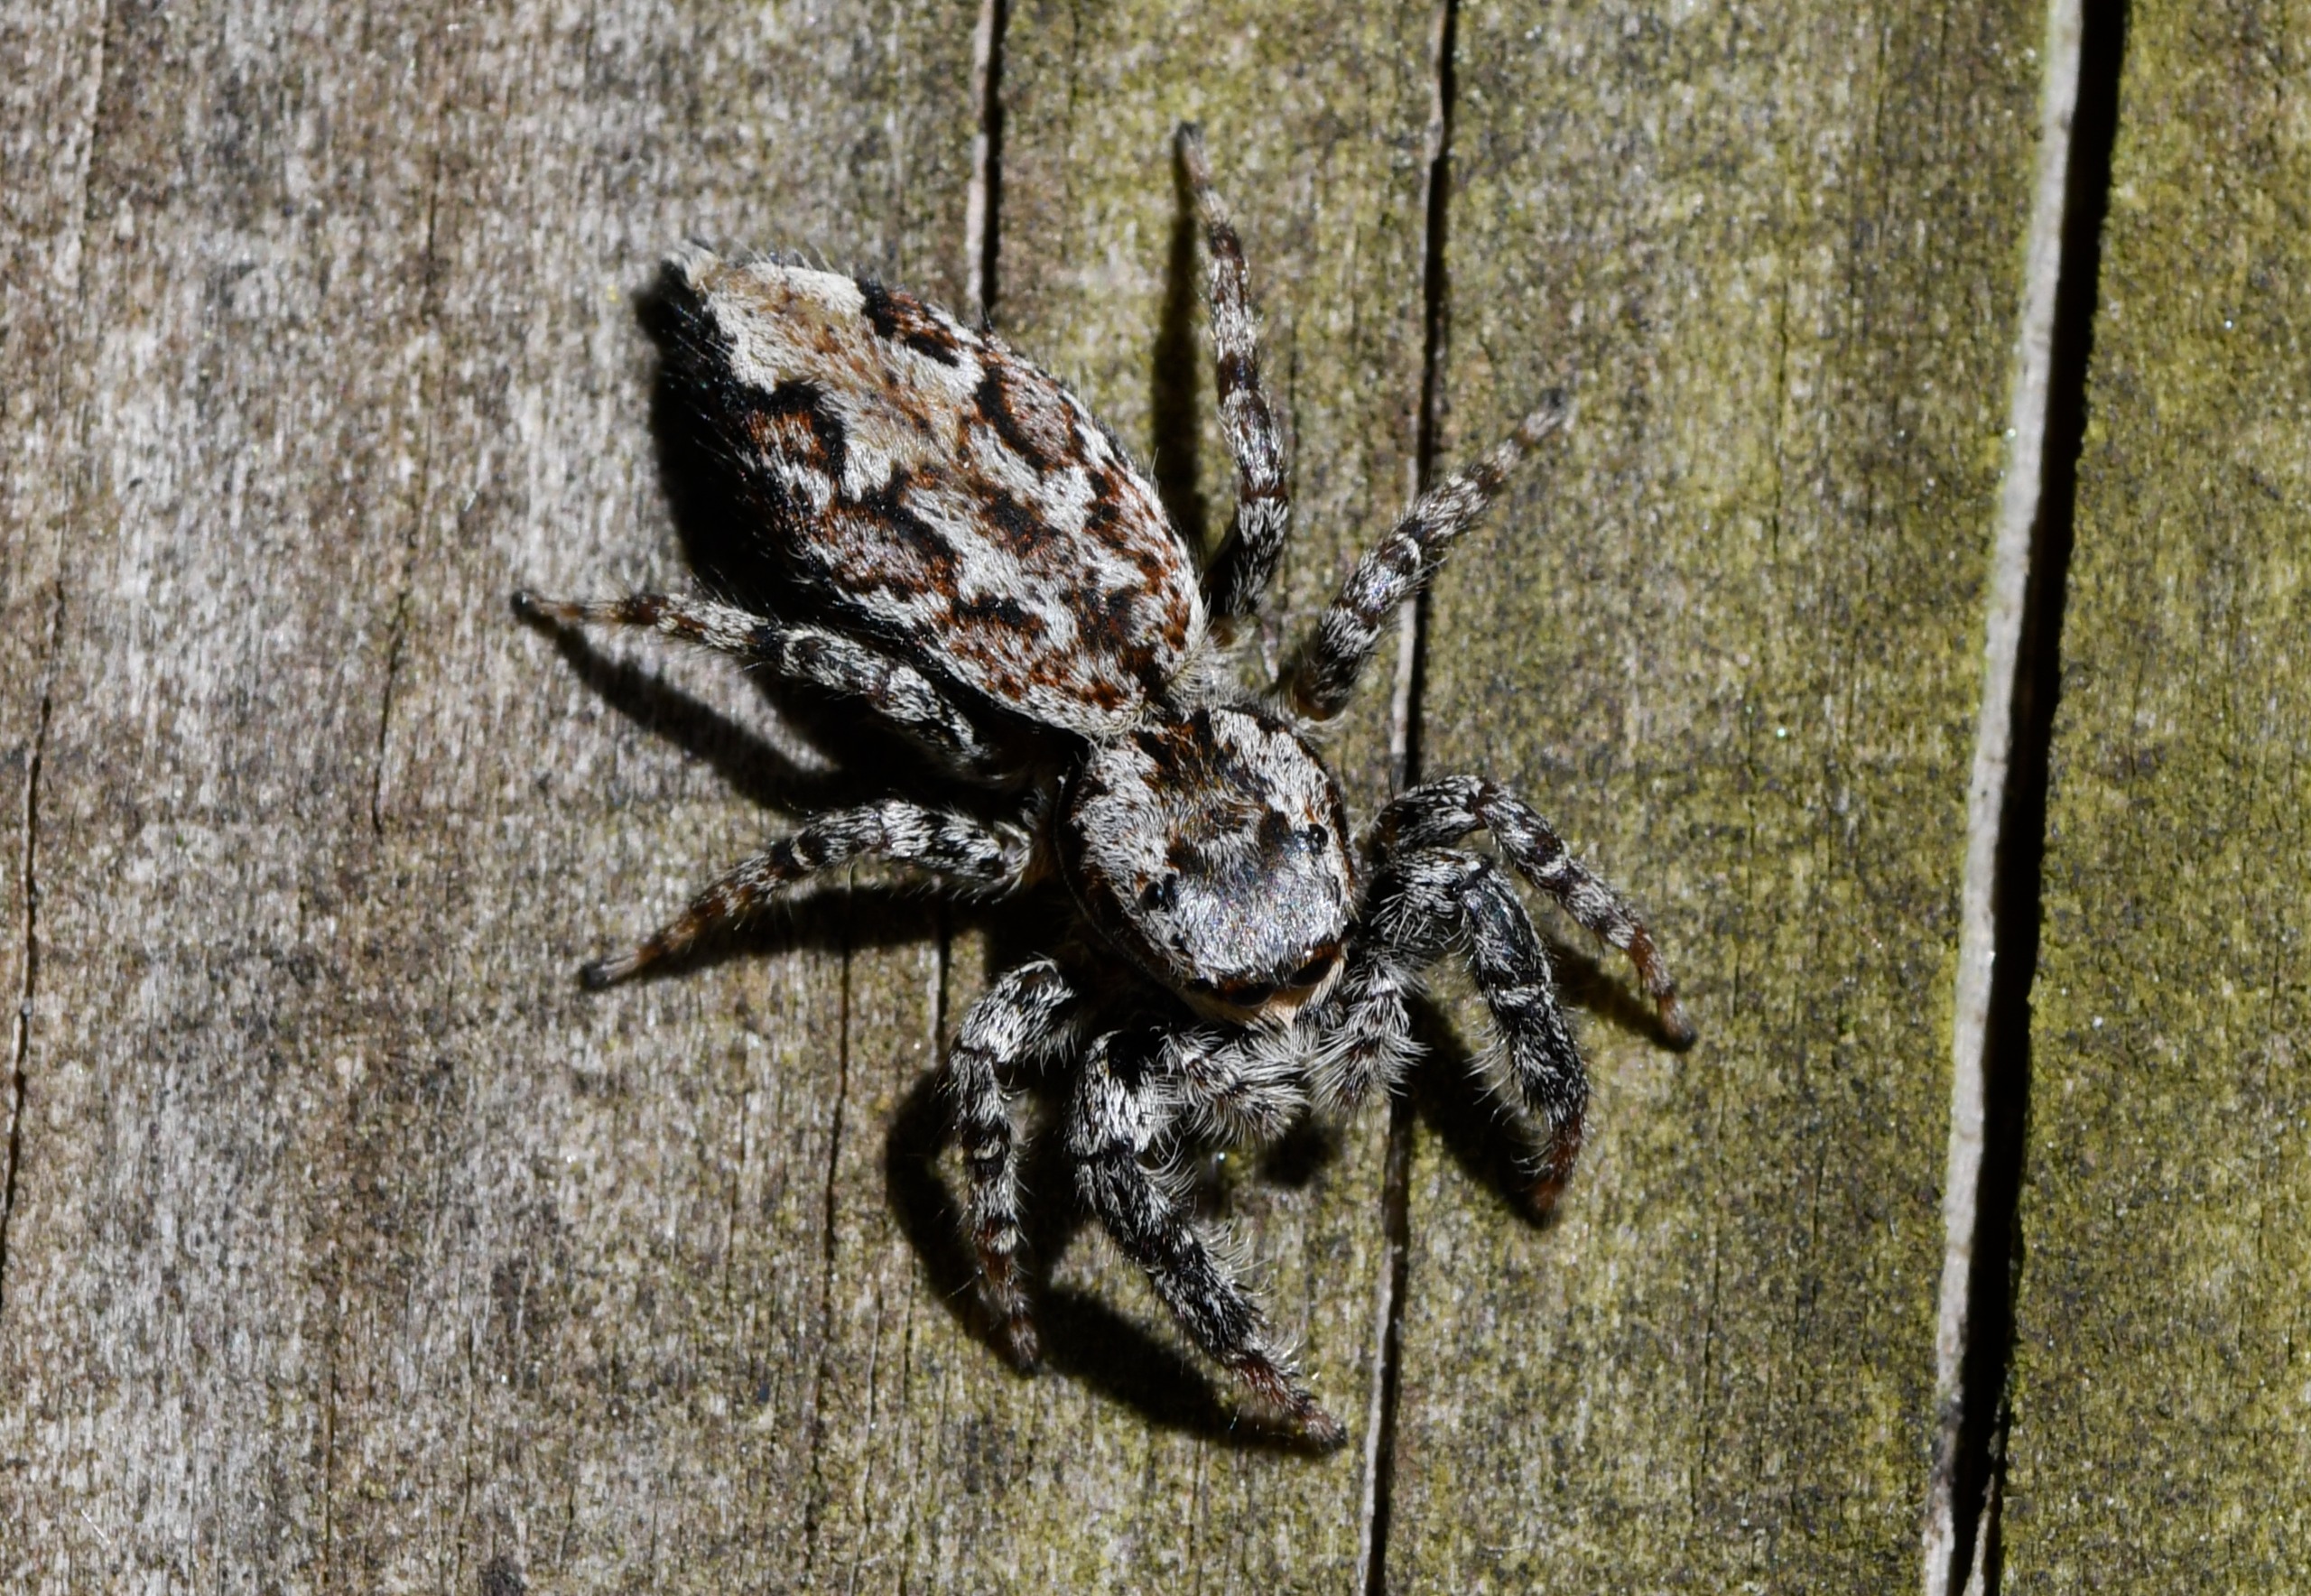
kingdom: Animalia
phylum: Arthropoda
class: Arachnida
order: Araneae
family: Salticidae
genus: Marpissa
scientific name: Marpissa muscosa
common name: Stor springedderkop
